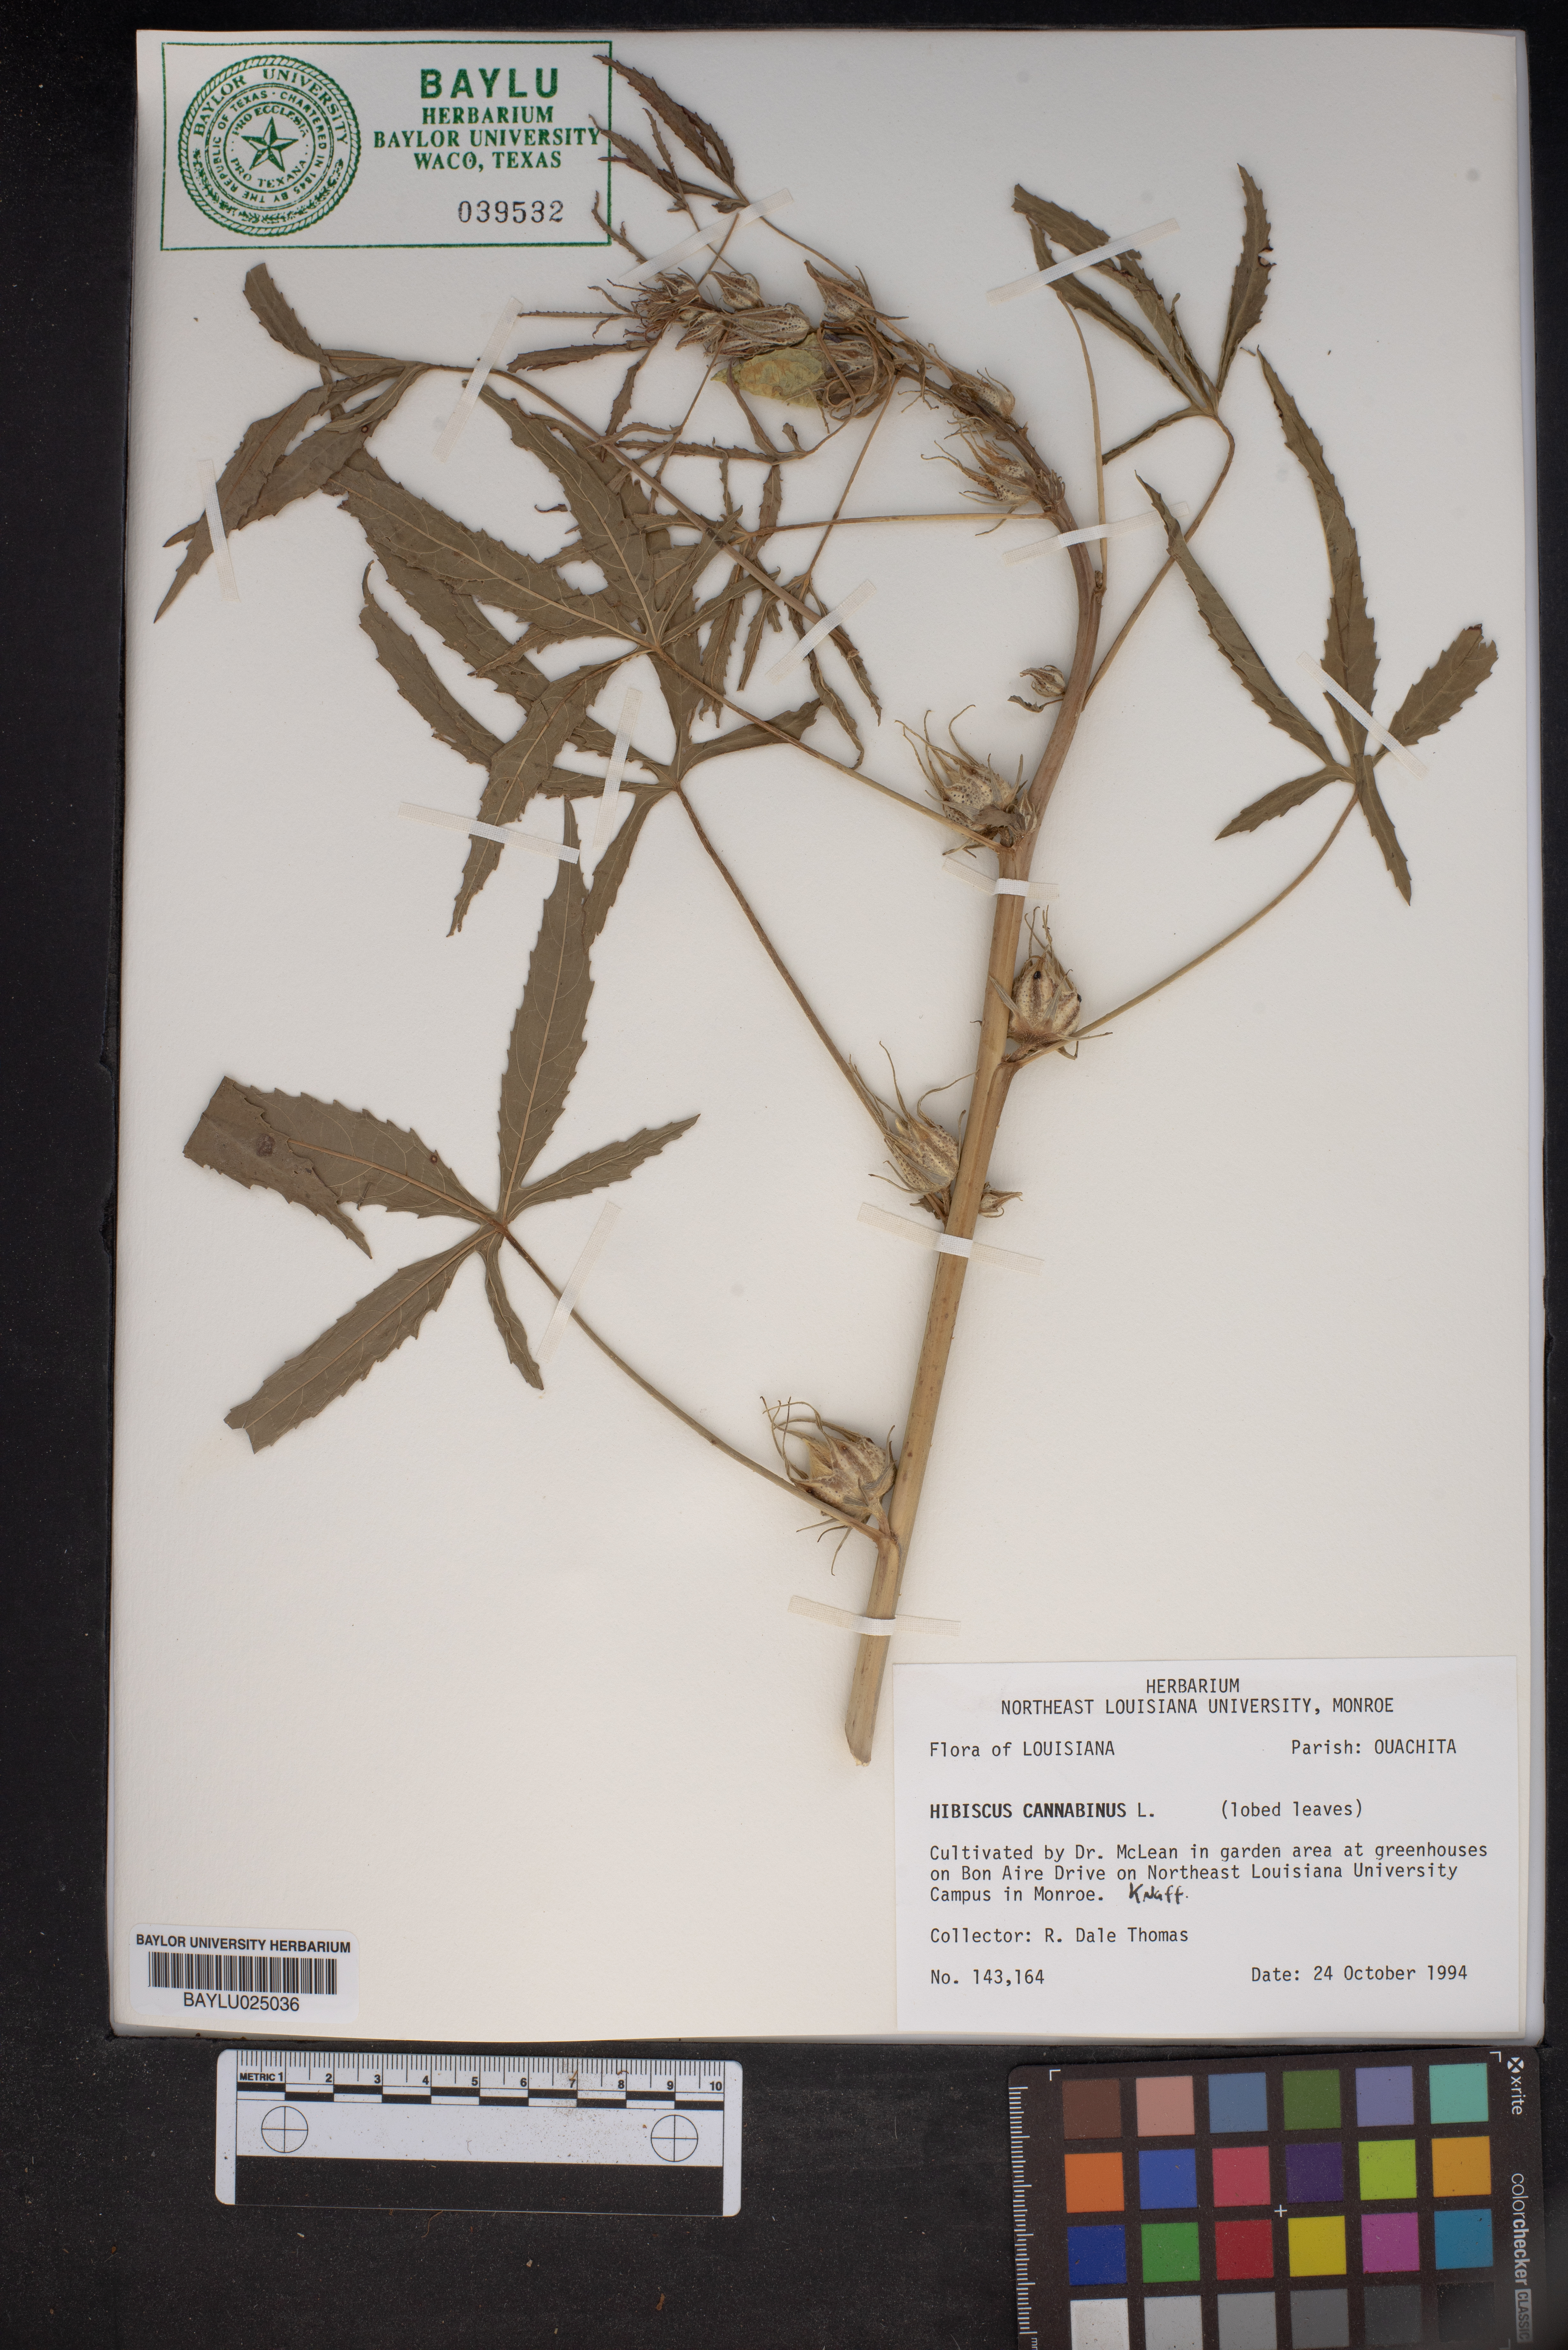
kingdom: Plantae
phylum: Tracheophyta
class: Magnoliopsida
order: Malvales
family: Malvaceae
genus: Hibiscus
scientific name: Hibiscus cannabinus
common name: Brown indianhemp
